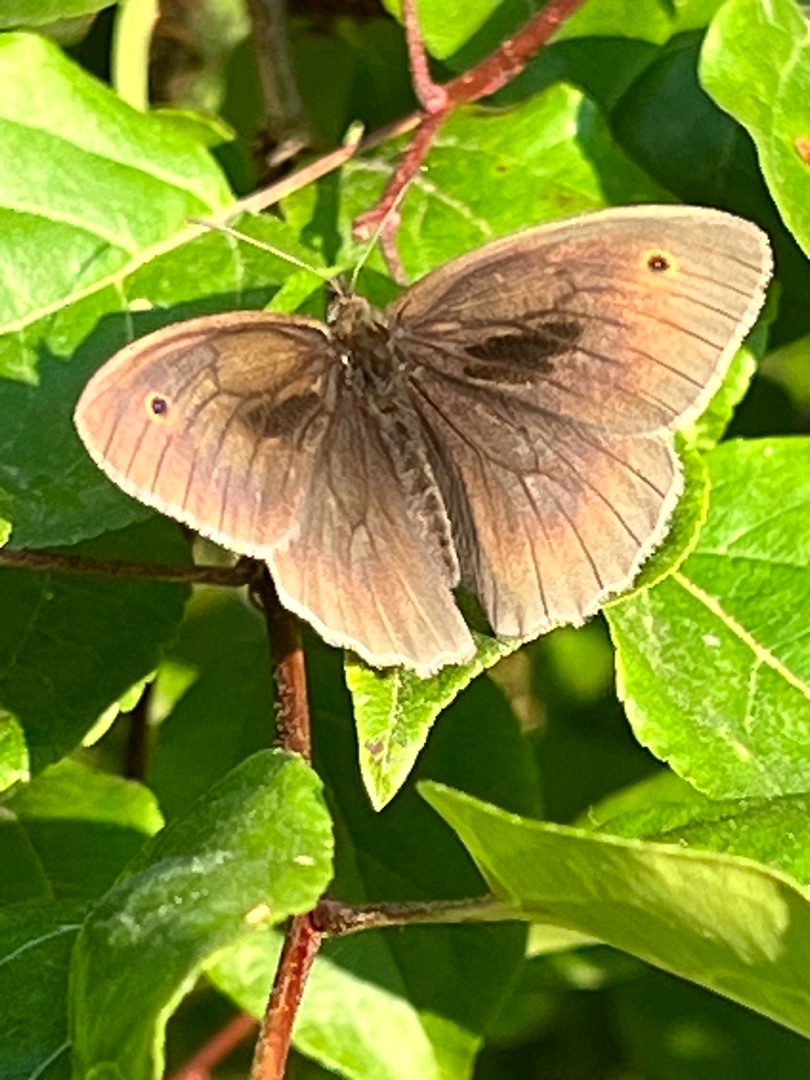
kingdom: Animalia
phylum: Arthropoda
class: Insecta
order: Lepidoptera
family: Nymphalidae
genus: Maniola
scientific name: Maniola jurtina
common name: Græsrandøje
